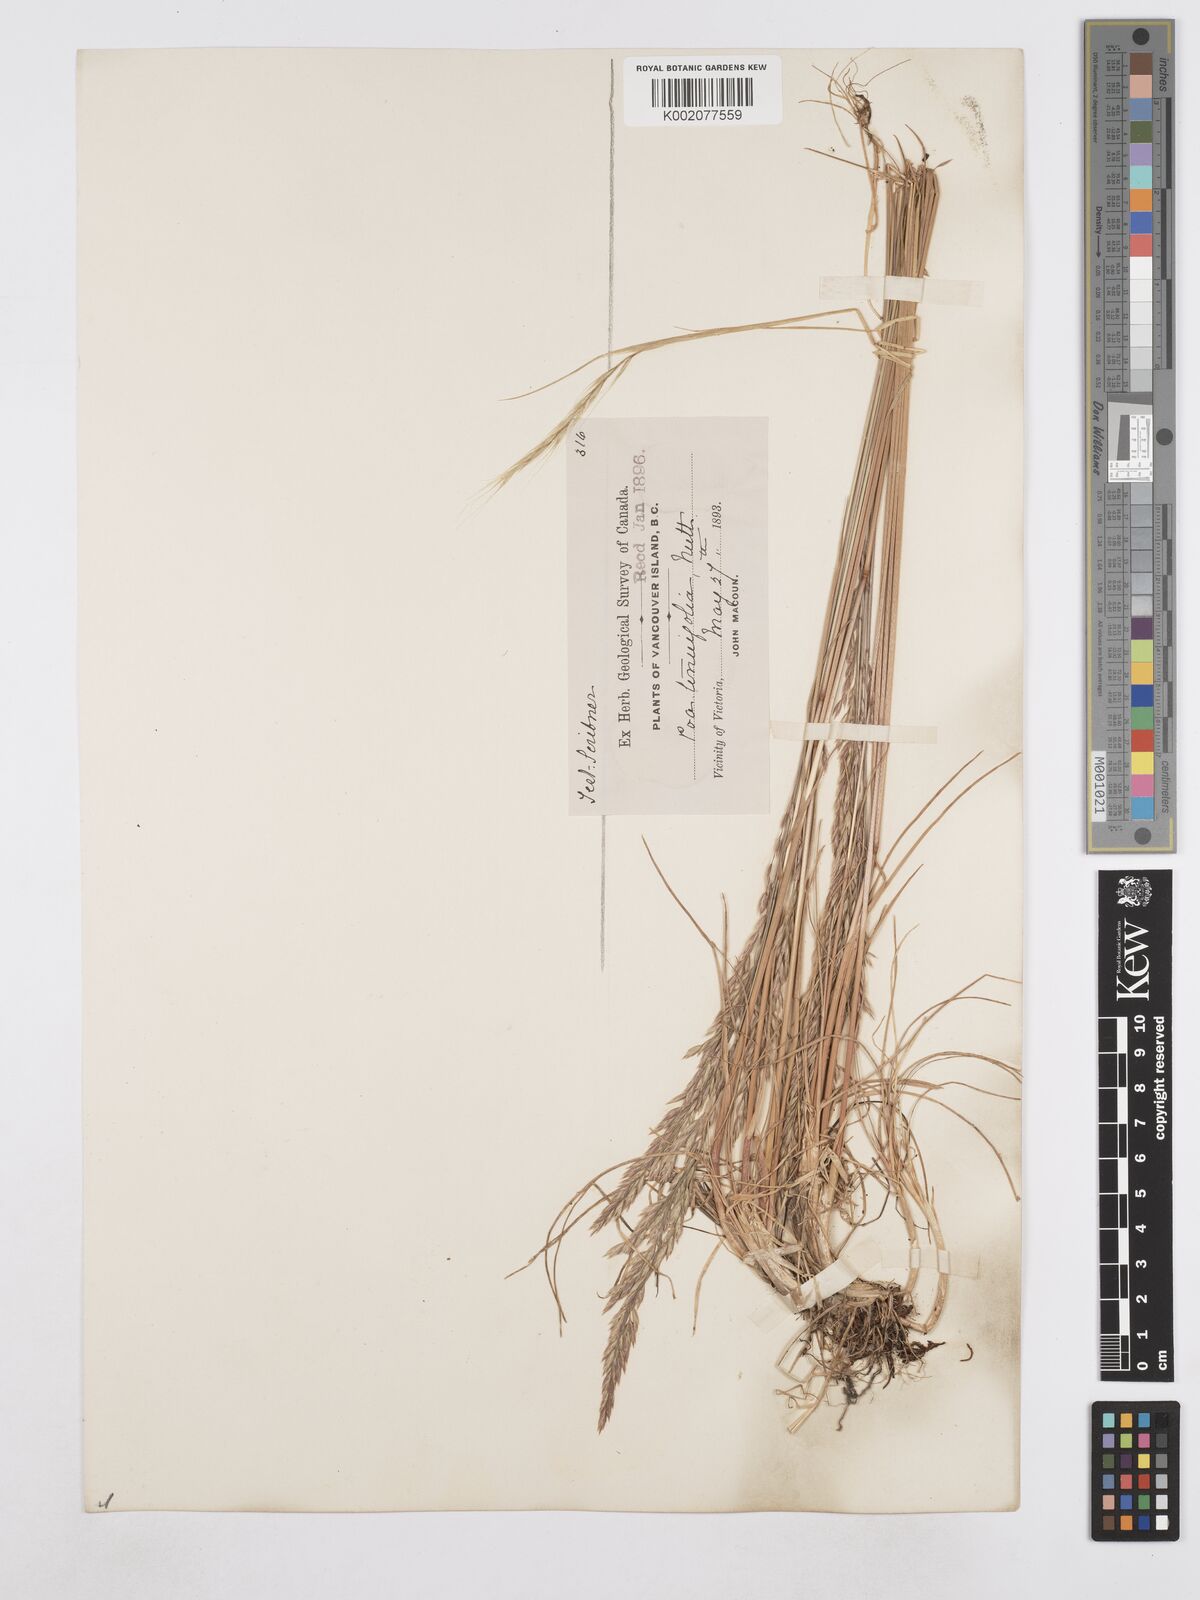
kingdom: Plantae
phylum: Tracheophyta
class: Liliopsida
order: Poales
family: Poaceae
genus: Poa
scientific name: Poa secunda
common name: Sandberg bluegrass
